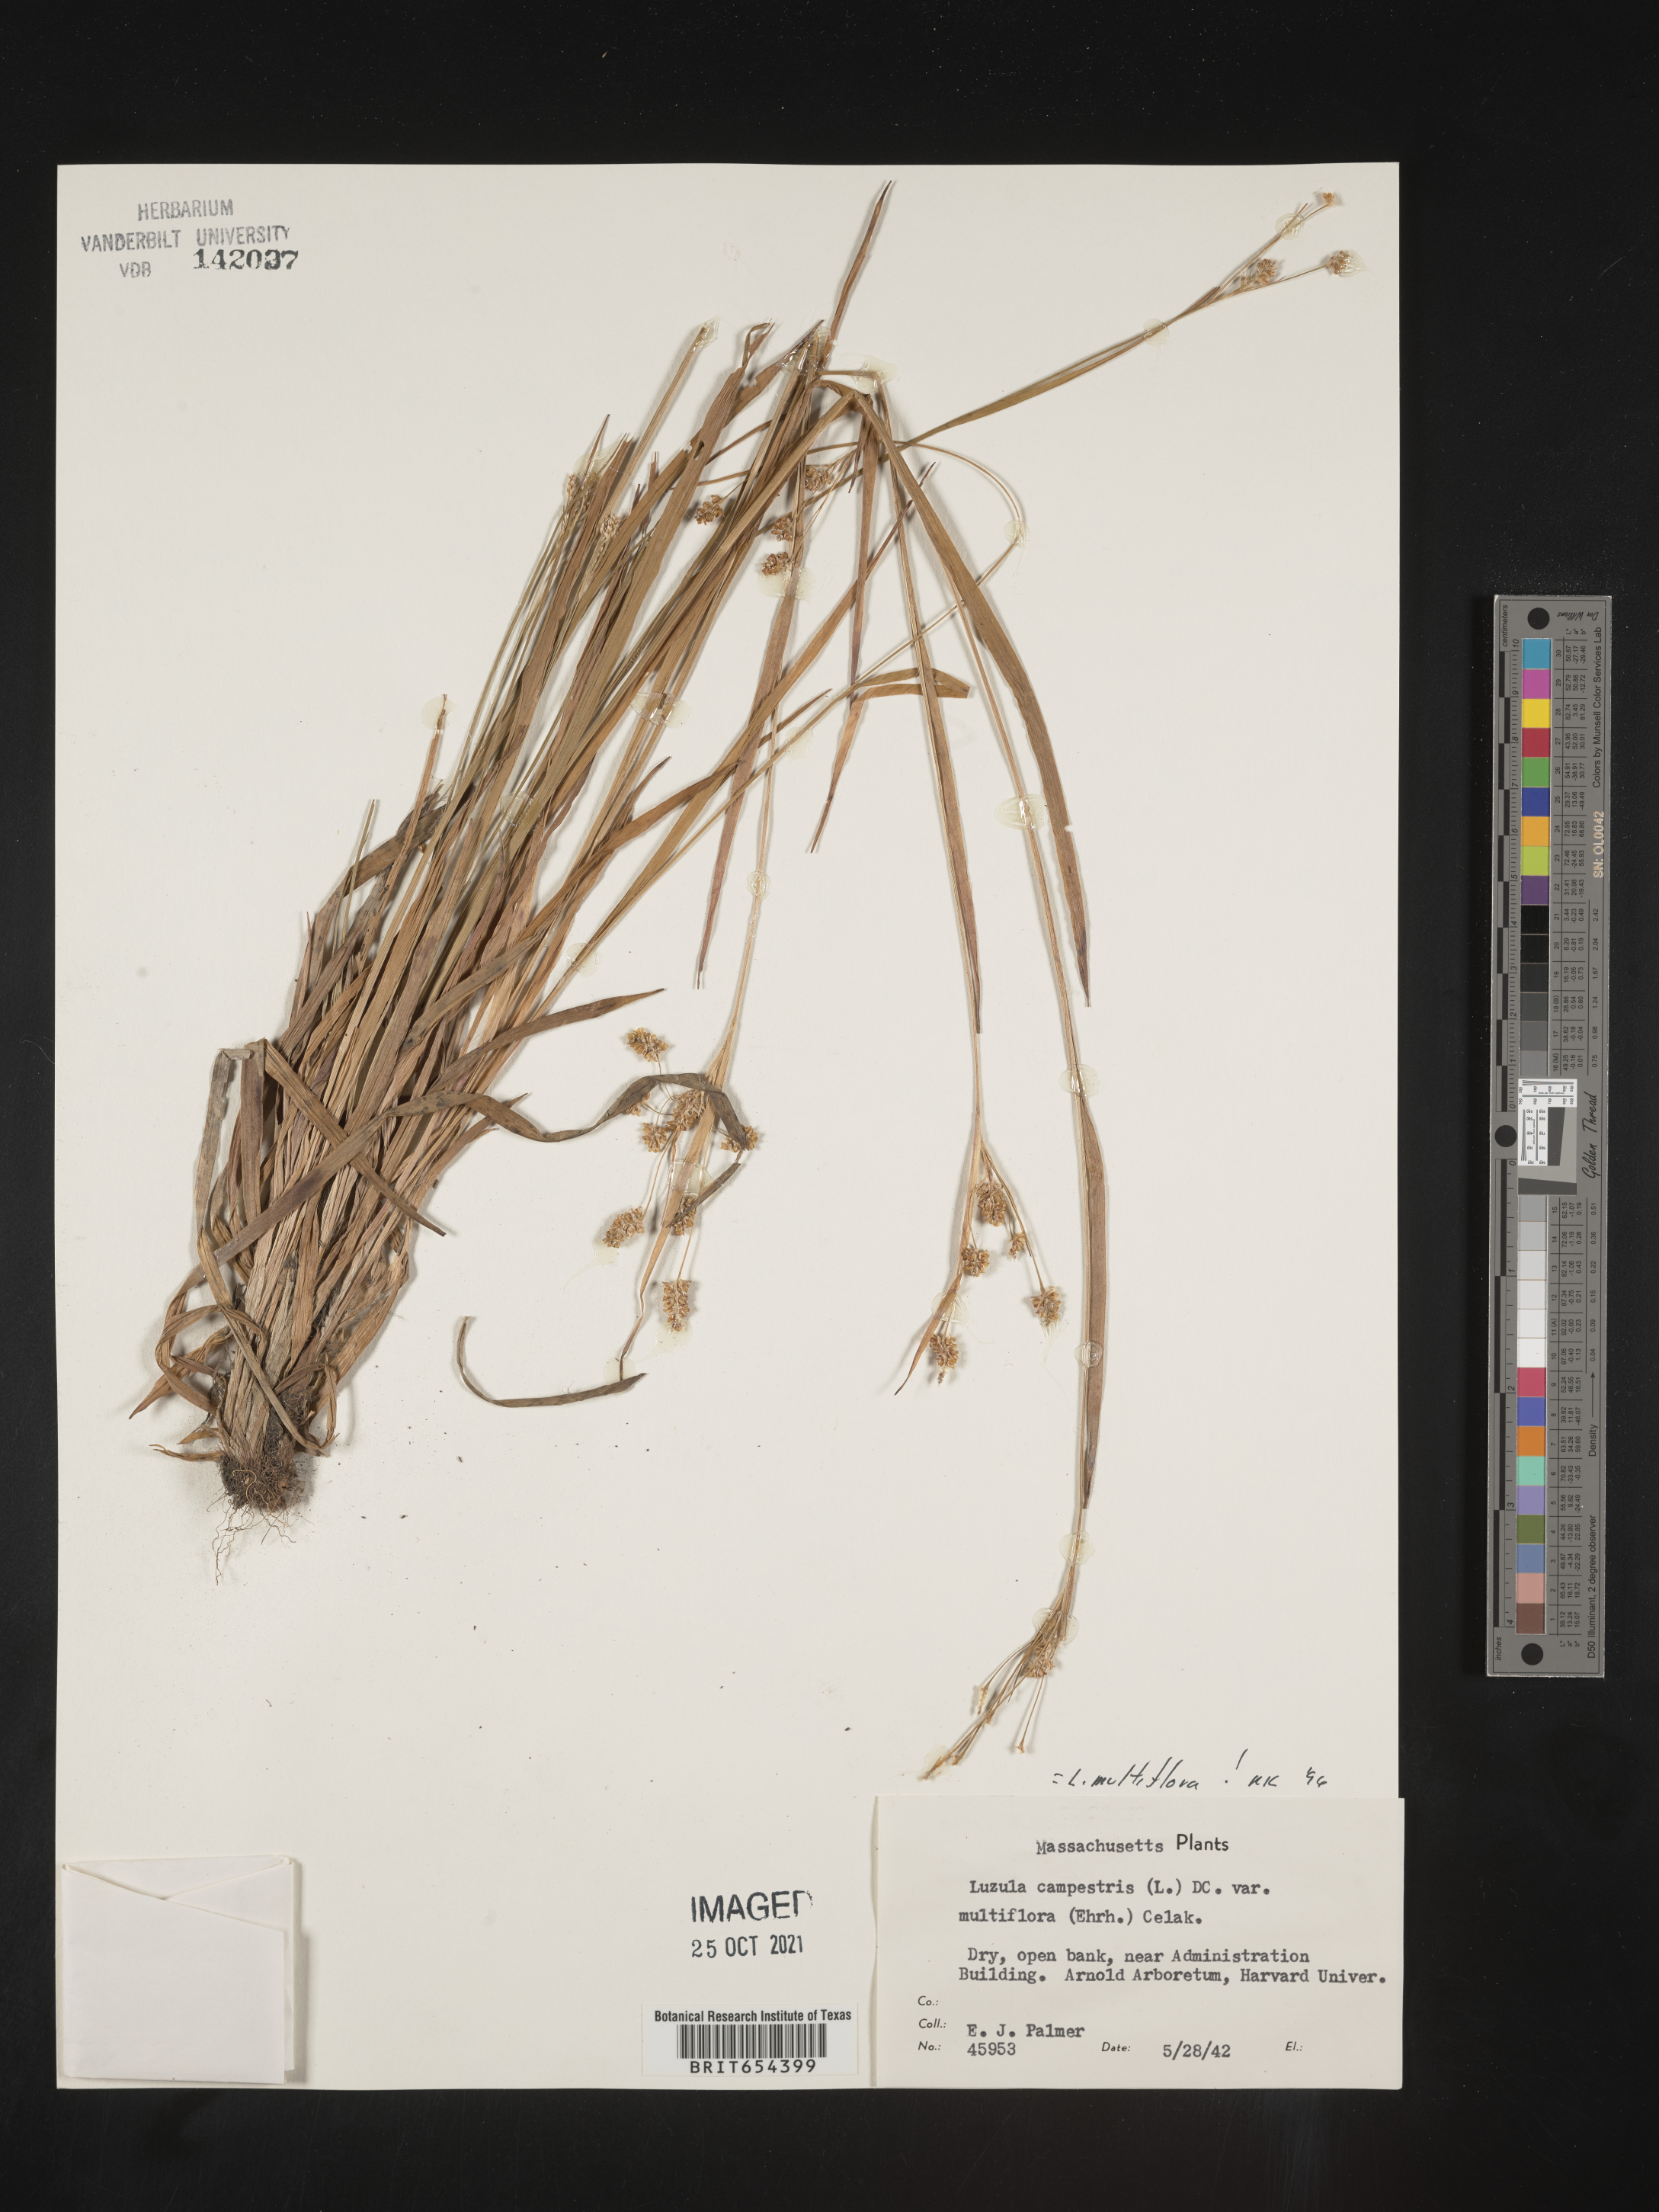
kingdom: Plantae
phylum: Tracheophyta
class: Liliopsida
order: Poales
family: Juncaceae
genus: Luzula
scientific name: Luzula multiflora
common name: Heath wood-rush
